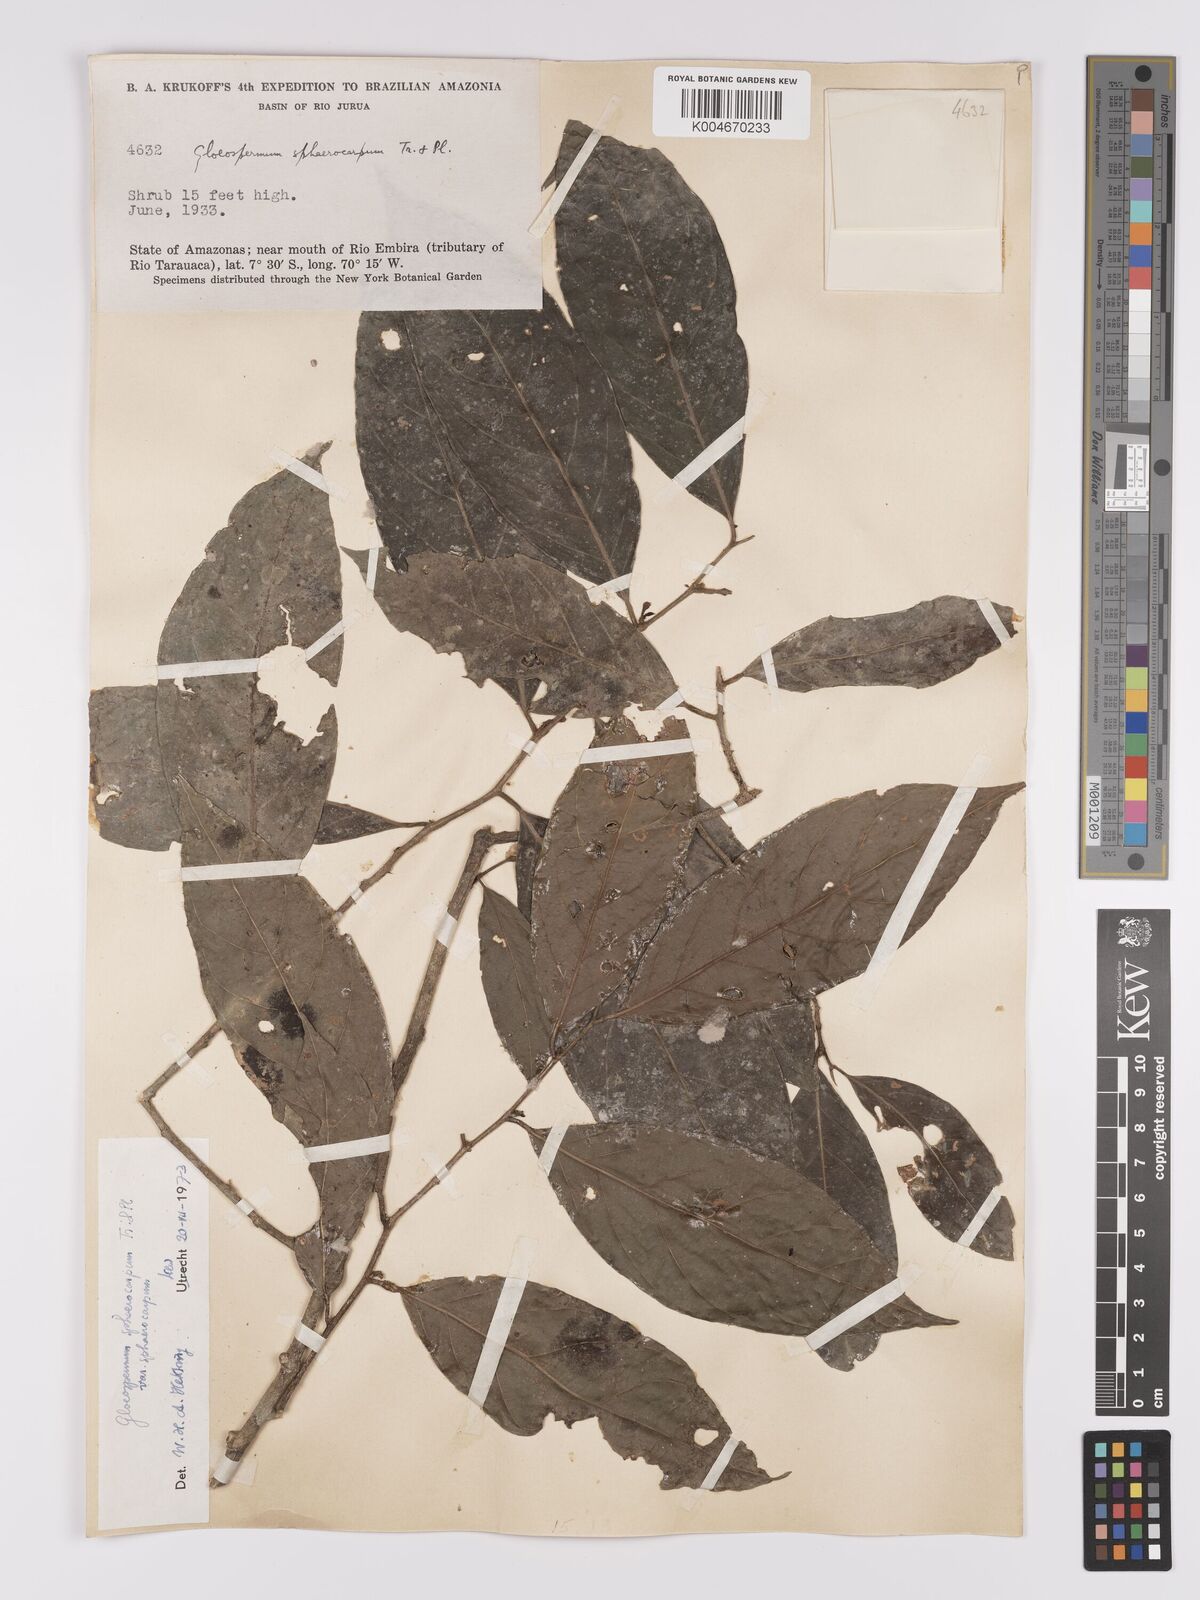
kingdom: Plantae
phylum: Tracheophyta
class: Magnoliopsida
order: Malpighiales
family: Violaceae
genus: Gloeospermum
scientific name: Gloeospermum sphaerocarpum
